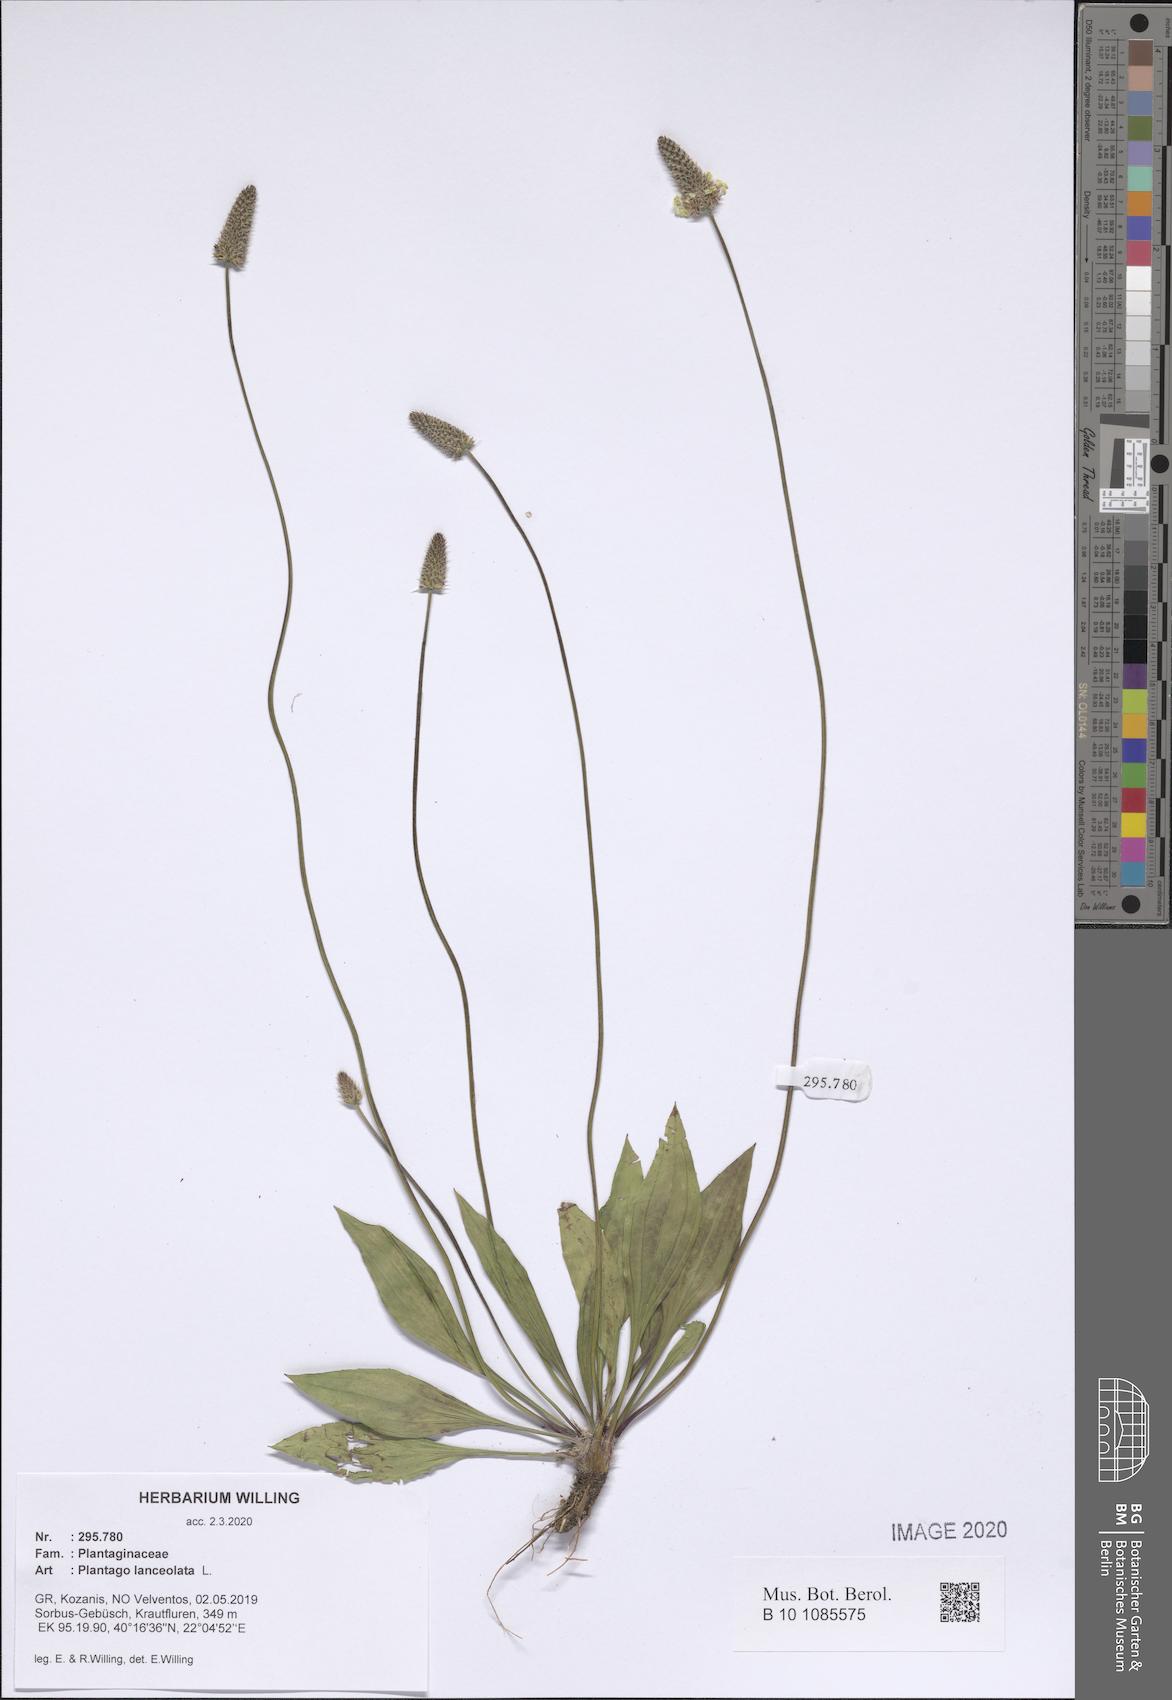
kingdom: Plantae
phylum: Tracheophyta
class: Magnoliopsida
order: Lamiales
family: Plantaginaceae
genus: Plantago
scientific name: Plantago lanceolata
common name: Ribwort plantain
